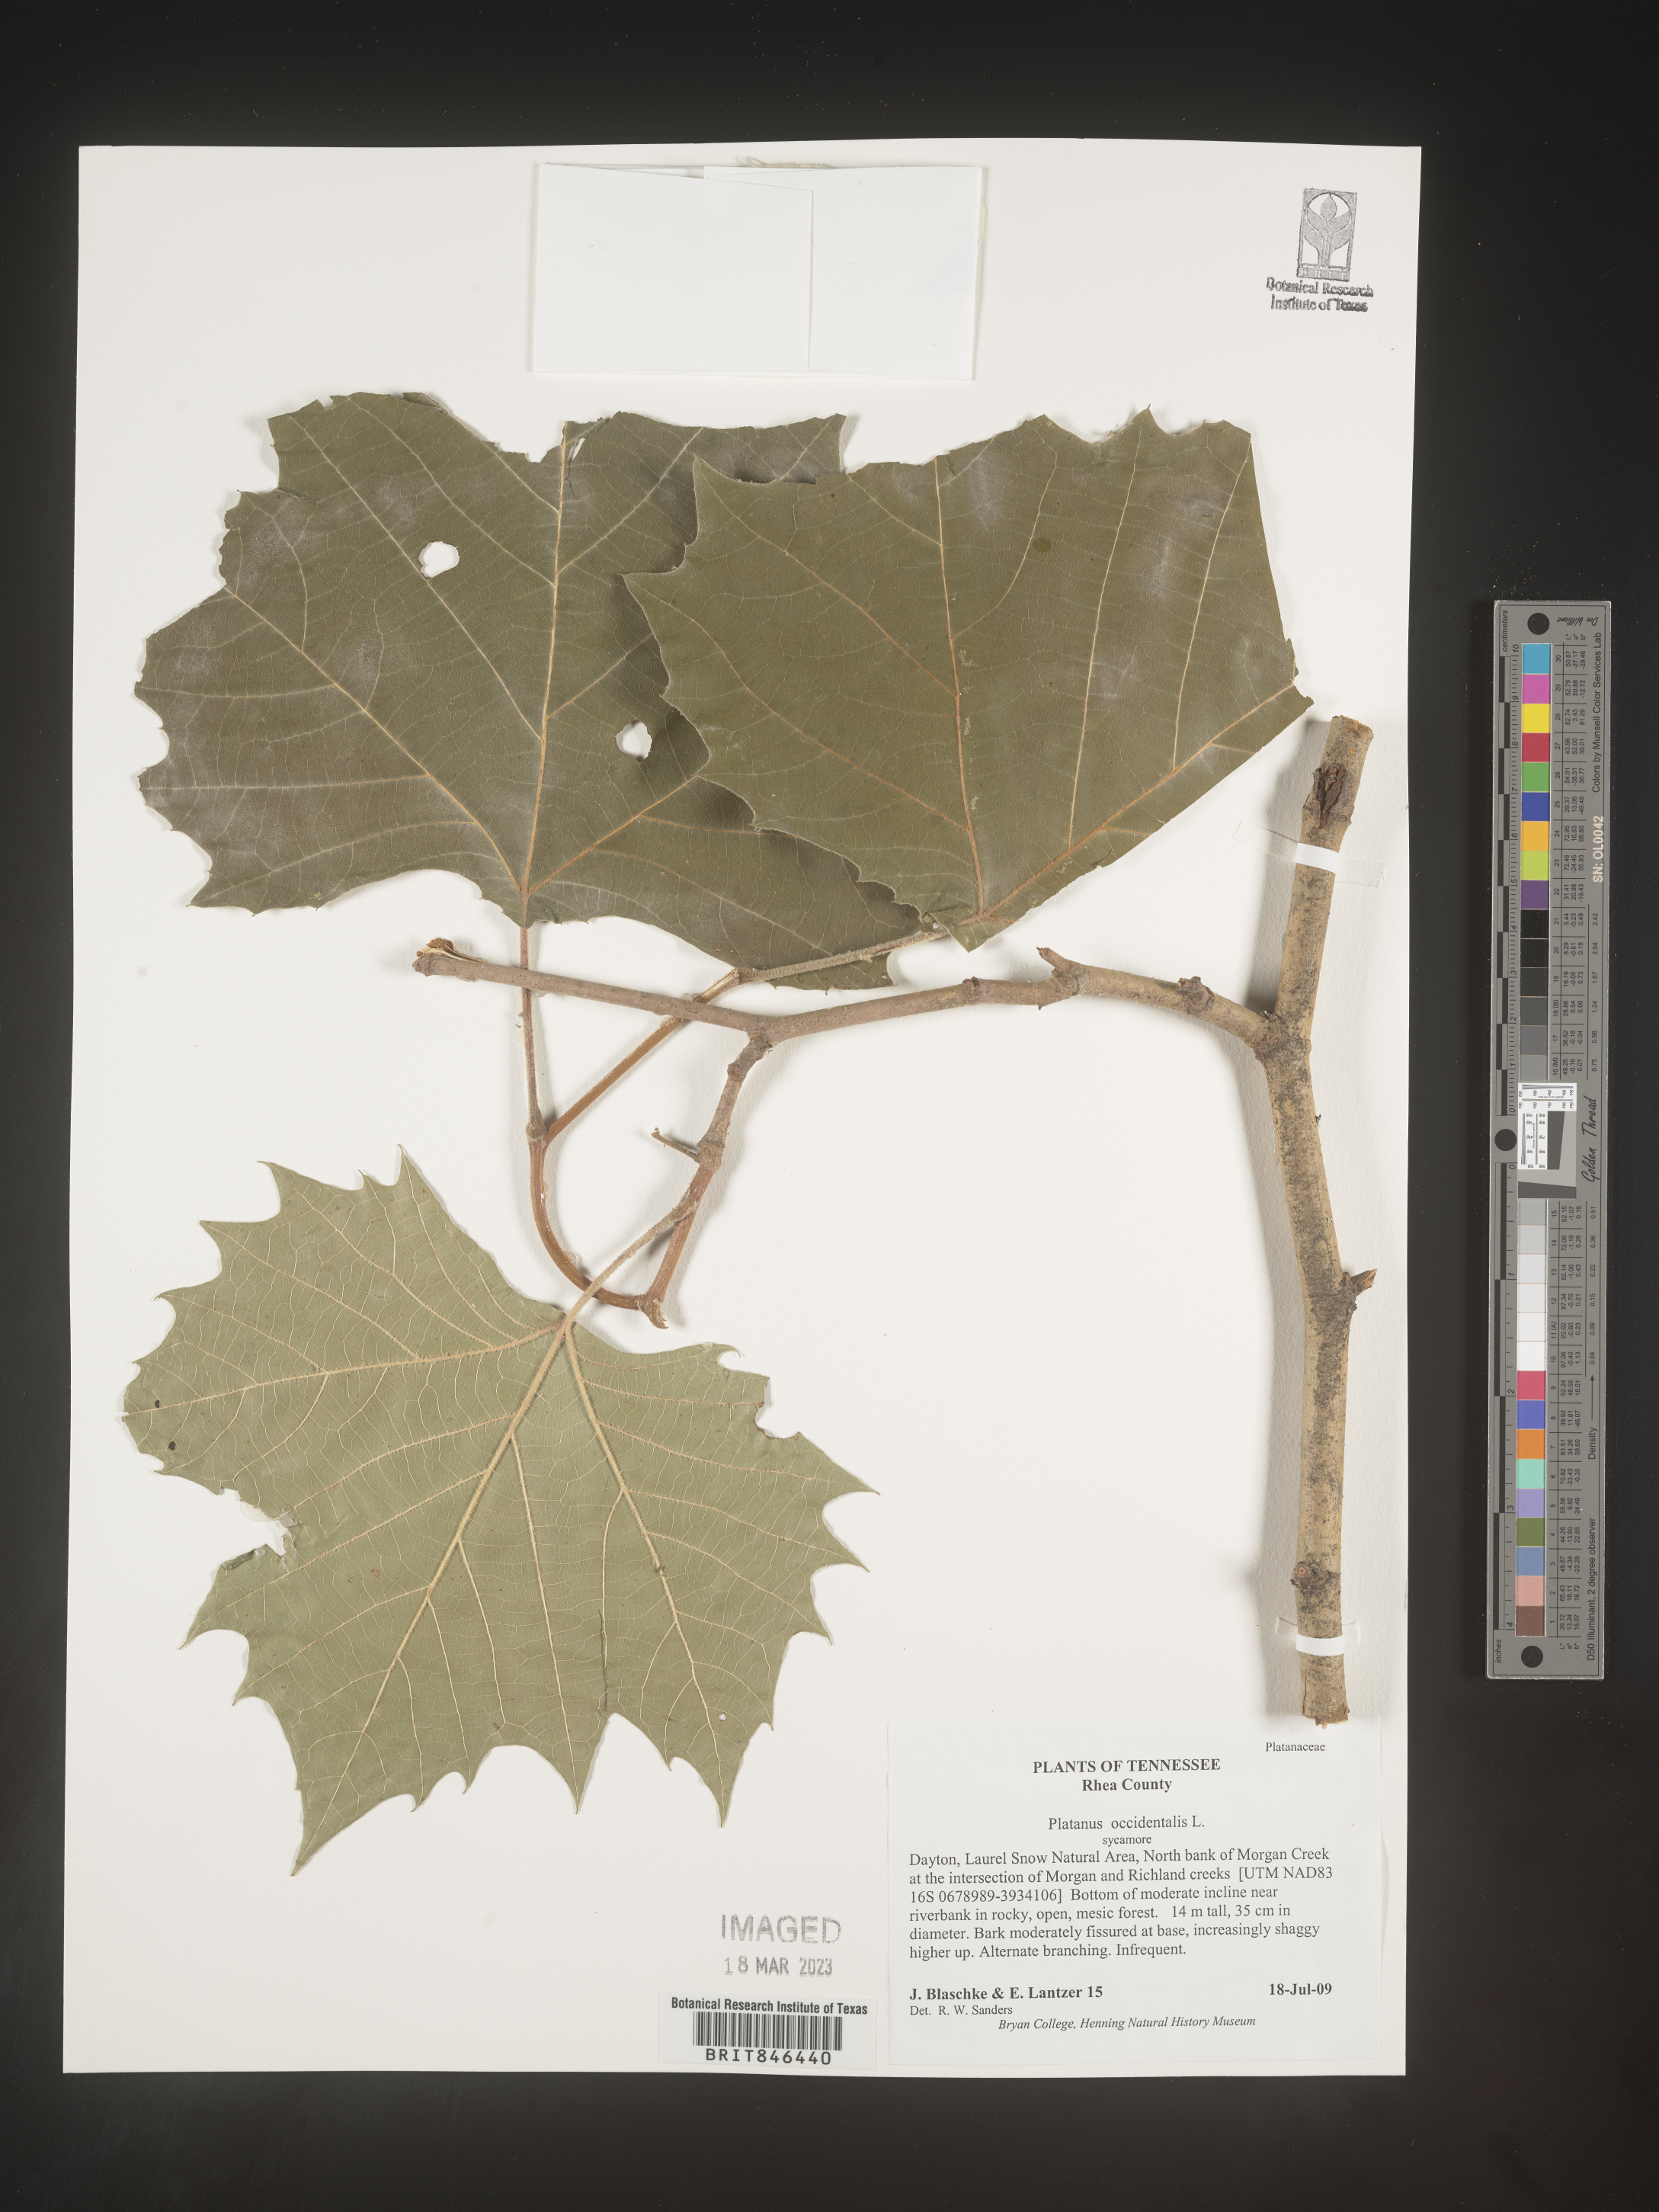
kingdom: Plantae
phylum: Tracheophyta
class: Magnoliopsida
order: Proteales
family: Platanaceae
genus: Platanus
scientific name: Platanus occidentalis
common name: American sycamore
